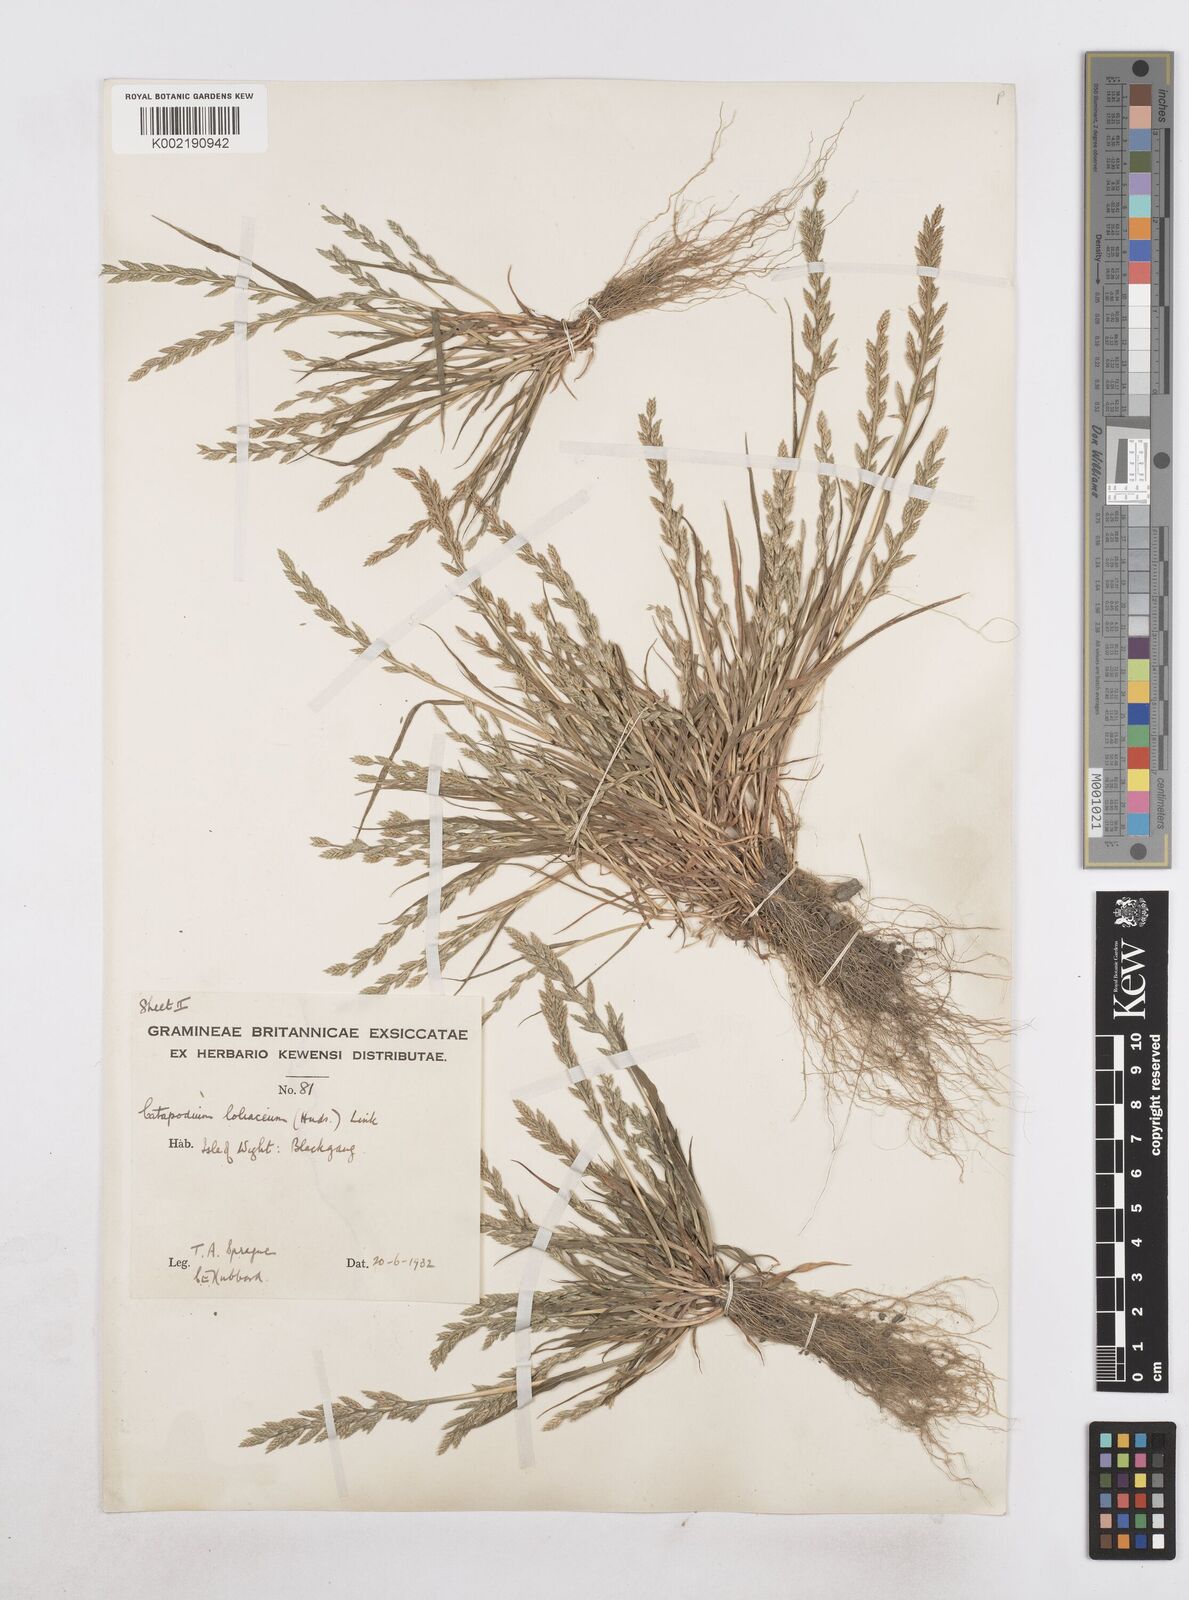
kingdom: Plantae
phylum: Tracheophyta
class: Liliopsida
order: Poales
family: Poaceae
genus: Catapodium
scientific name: Catapodium marinum
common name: Sea fern-grass
